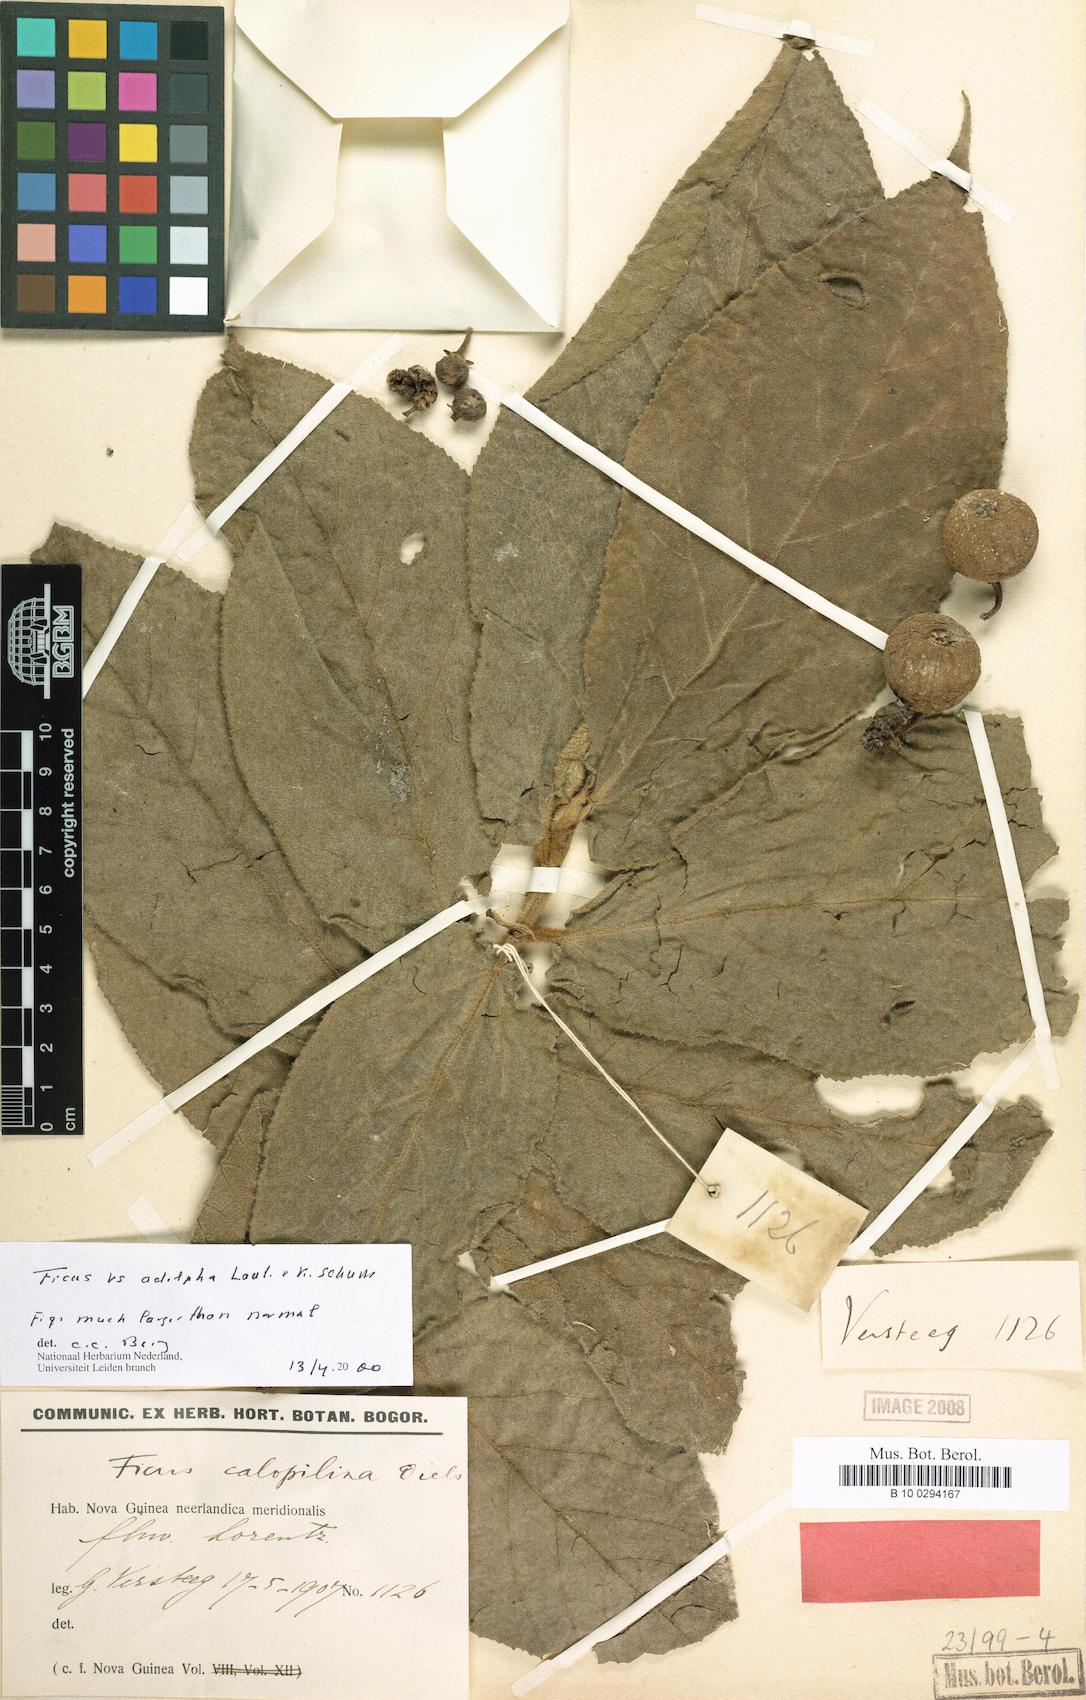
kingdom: Plantae
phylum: Tracheophyta
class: Magnoliopsida
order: Rosales
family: Moraceae
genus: Ficus
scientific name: Ficus calopilina
